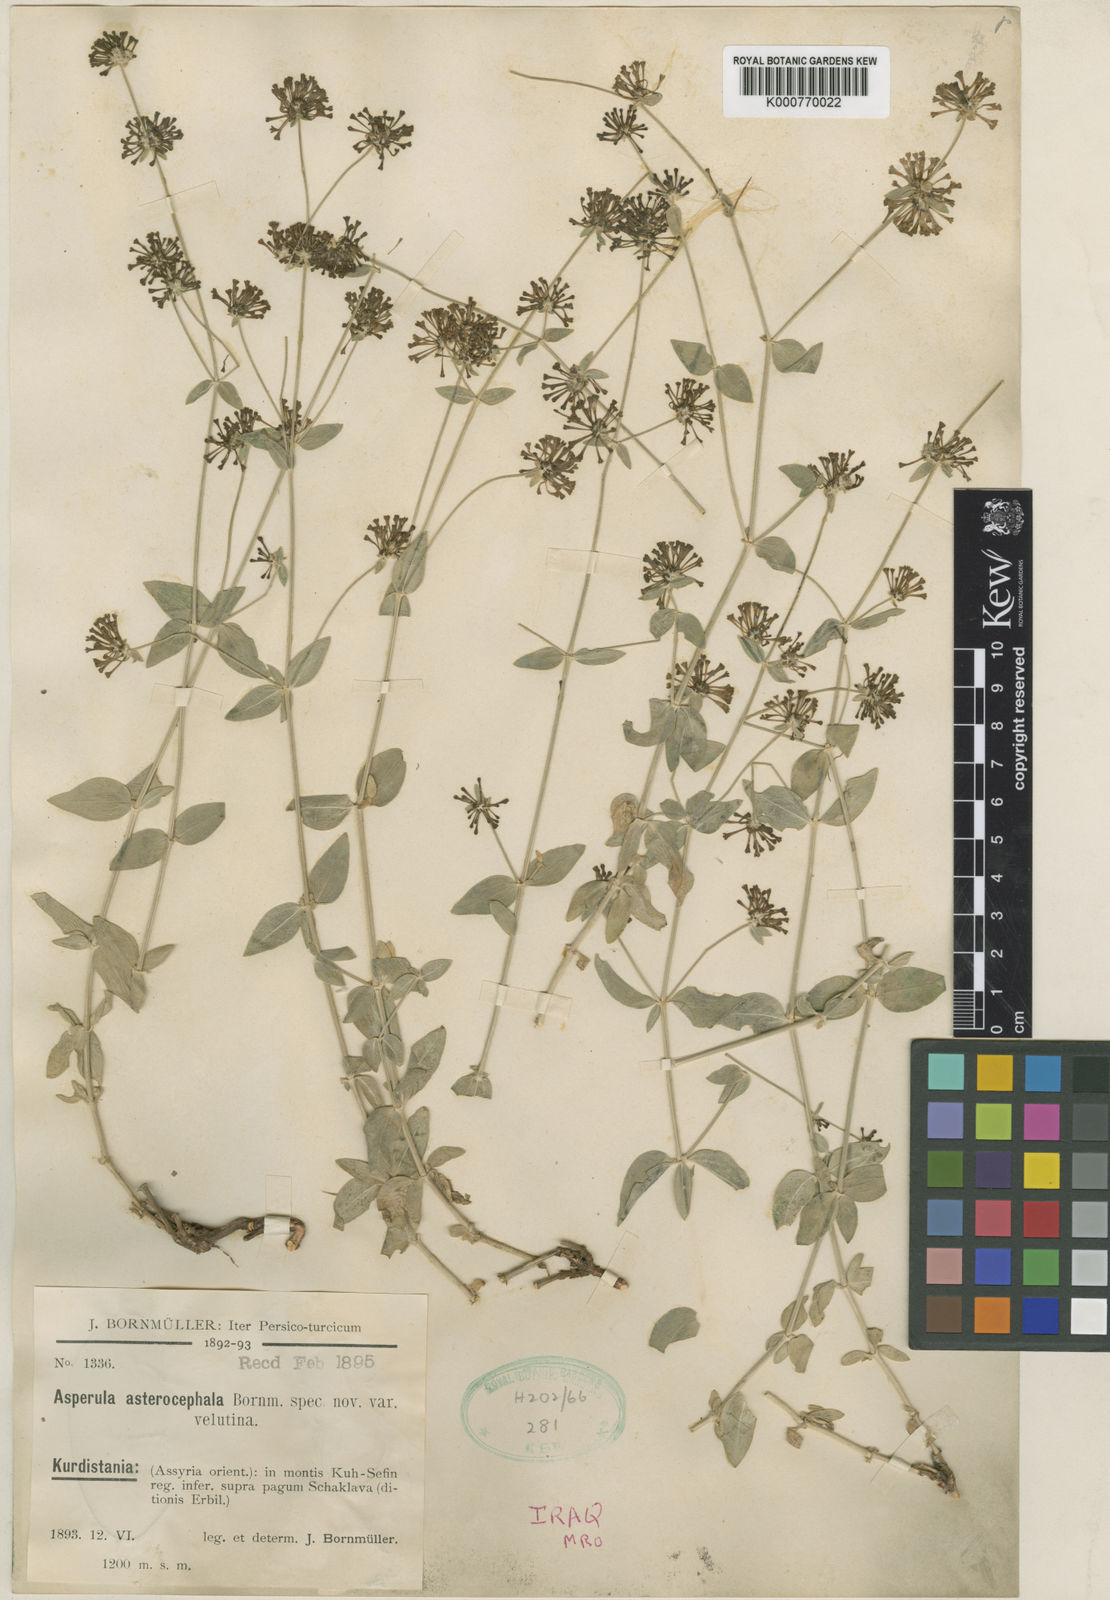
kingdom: Plantae
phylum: Tracheophyta
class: Magnoliopsida
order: Gentianales
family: Rubiaceae
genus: Asperula
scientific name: Asperula asterocephala
